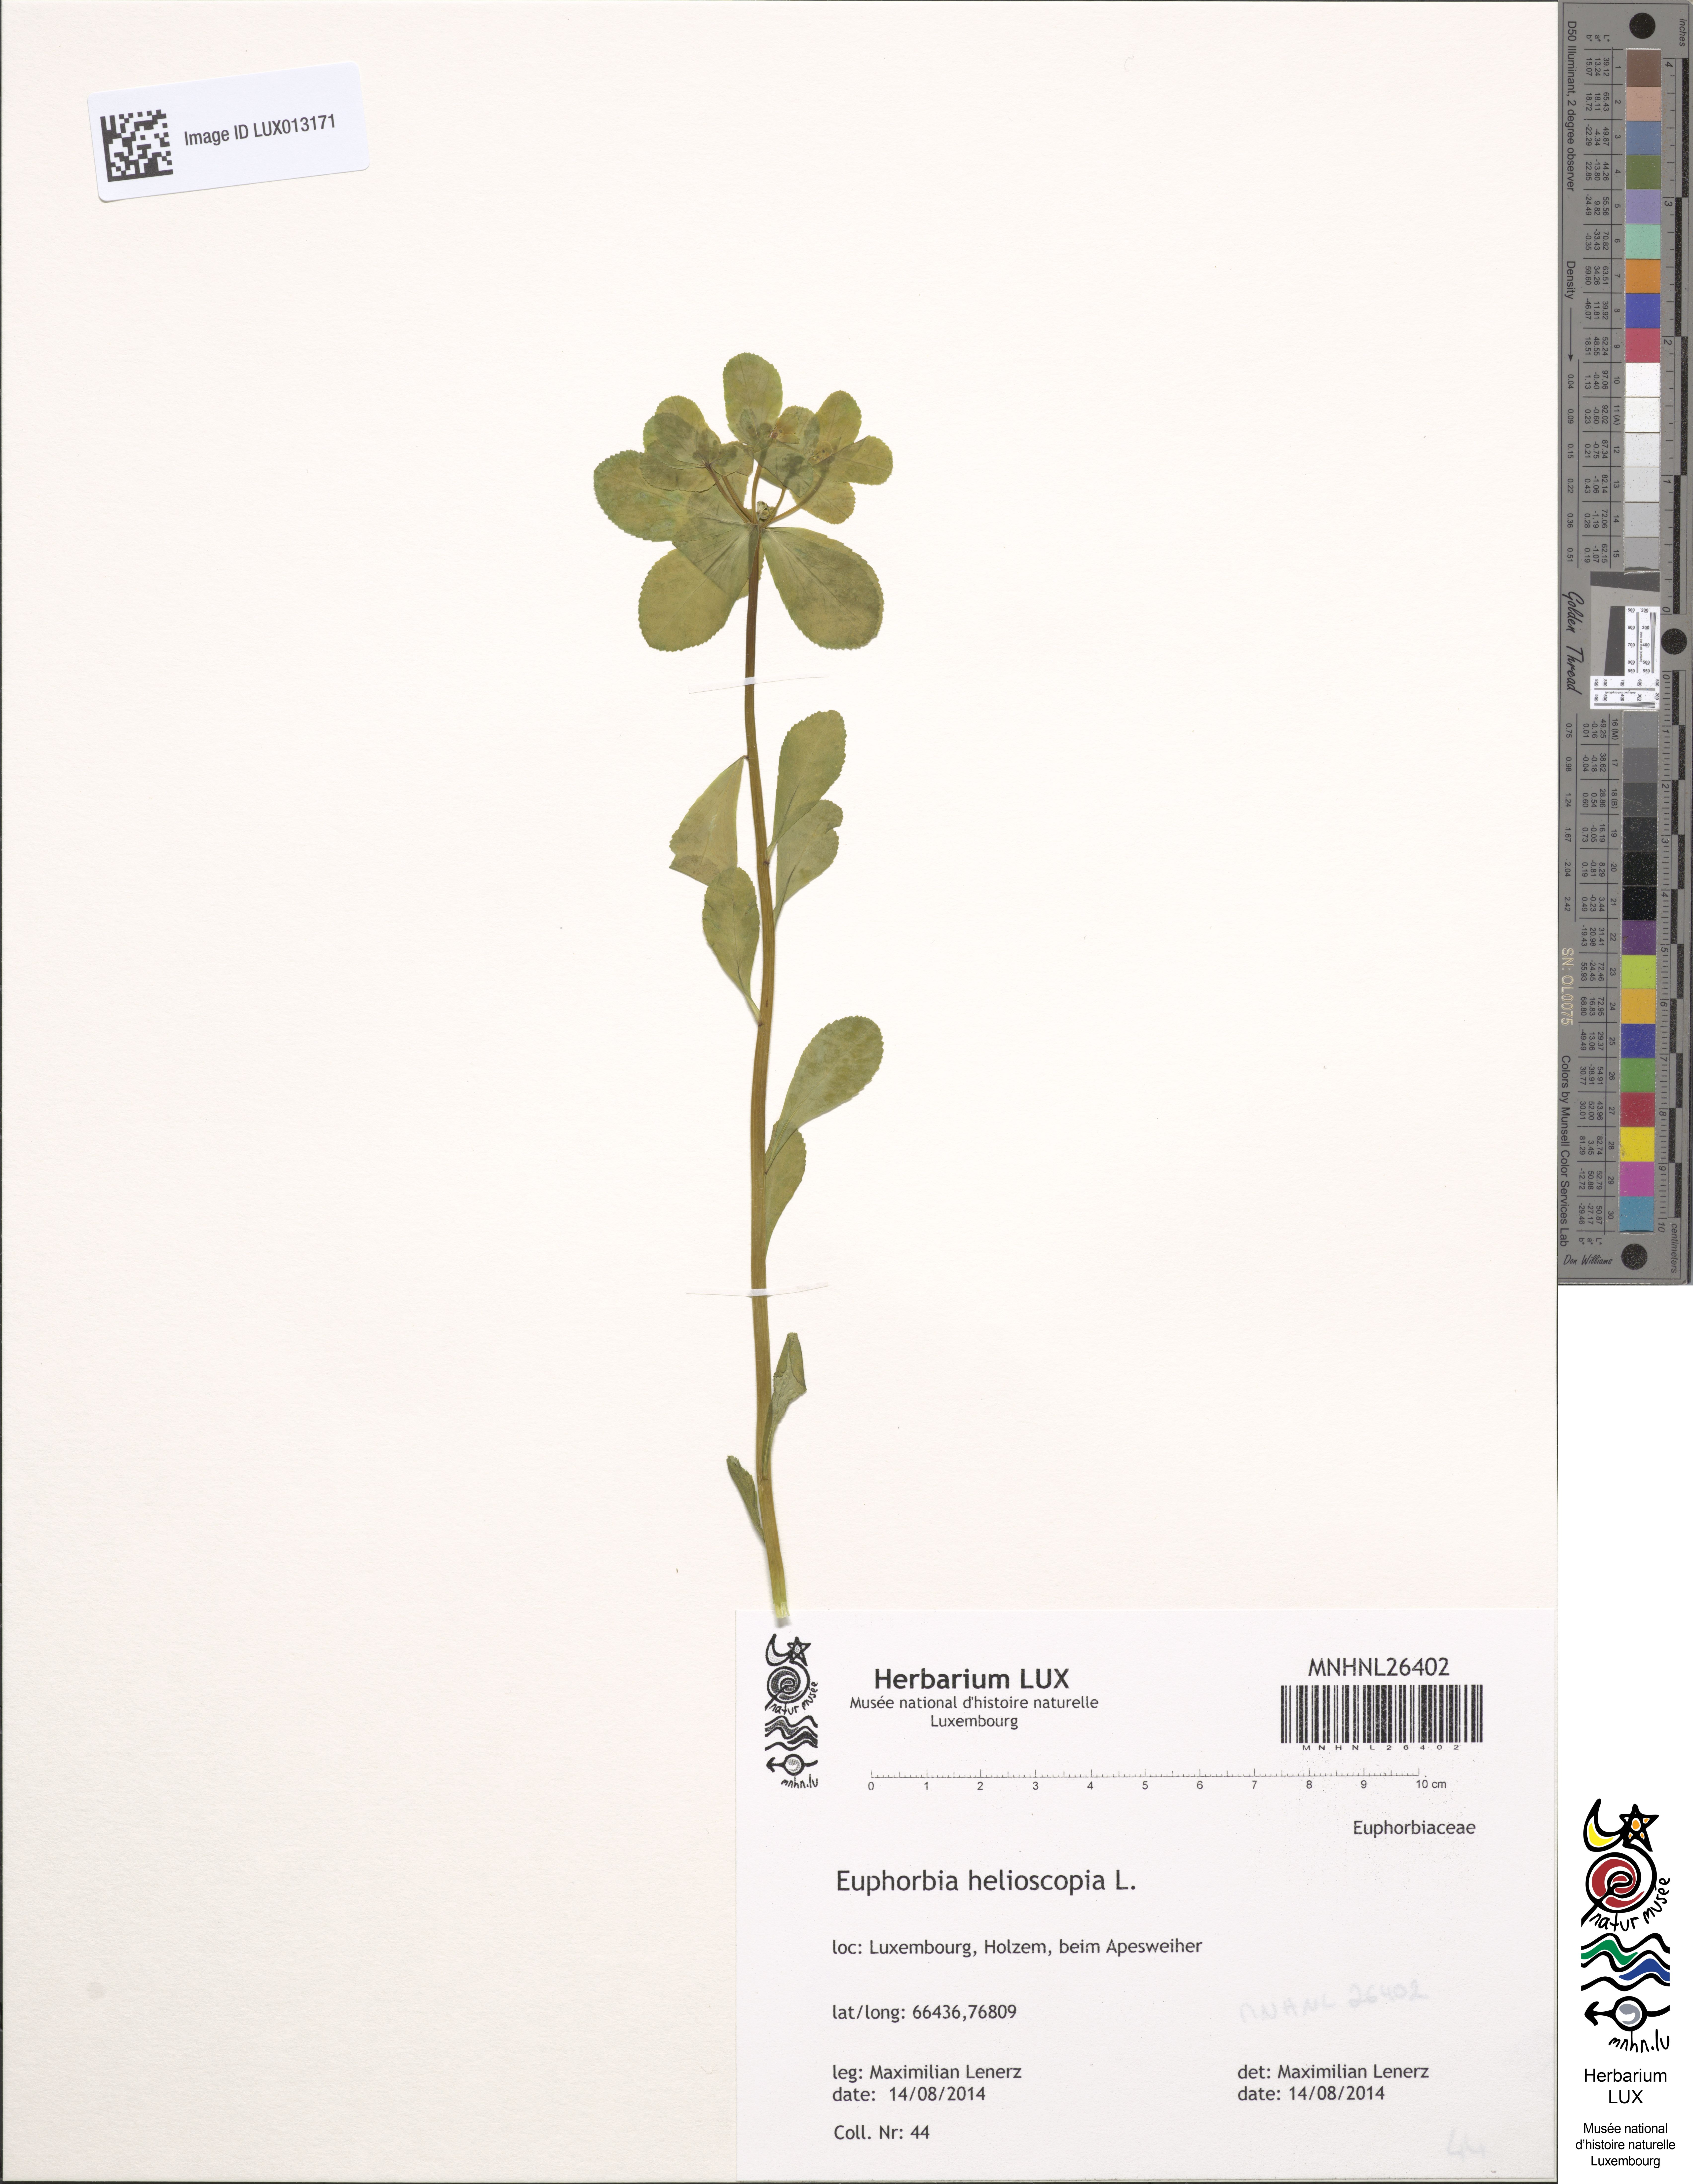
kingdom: Plantae
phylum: Tracheophyta
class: Magnoliopsida
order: Malpighiales
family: Euphorbiaceae
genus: Euphorbia
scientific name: Euphorbia helioscopia
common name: Sun spurge
